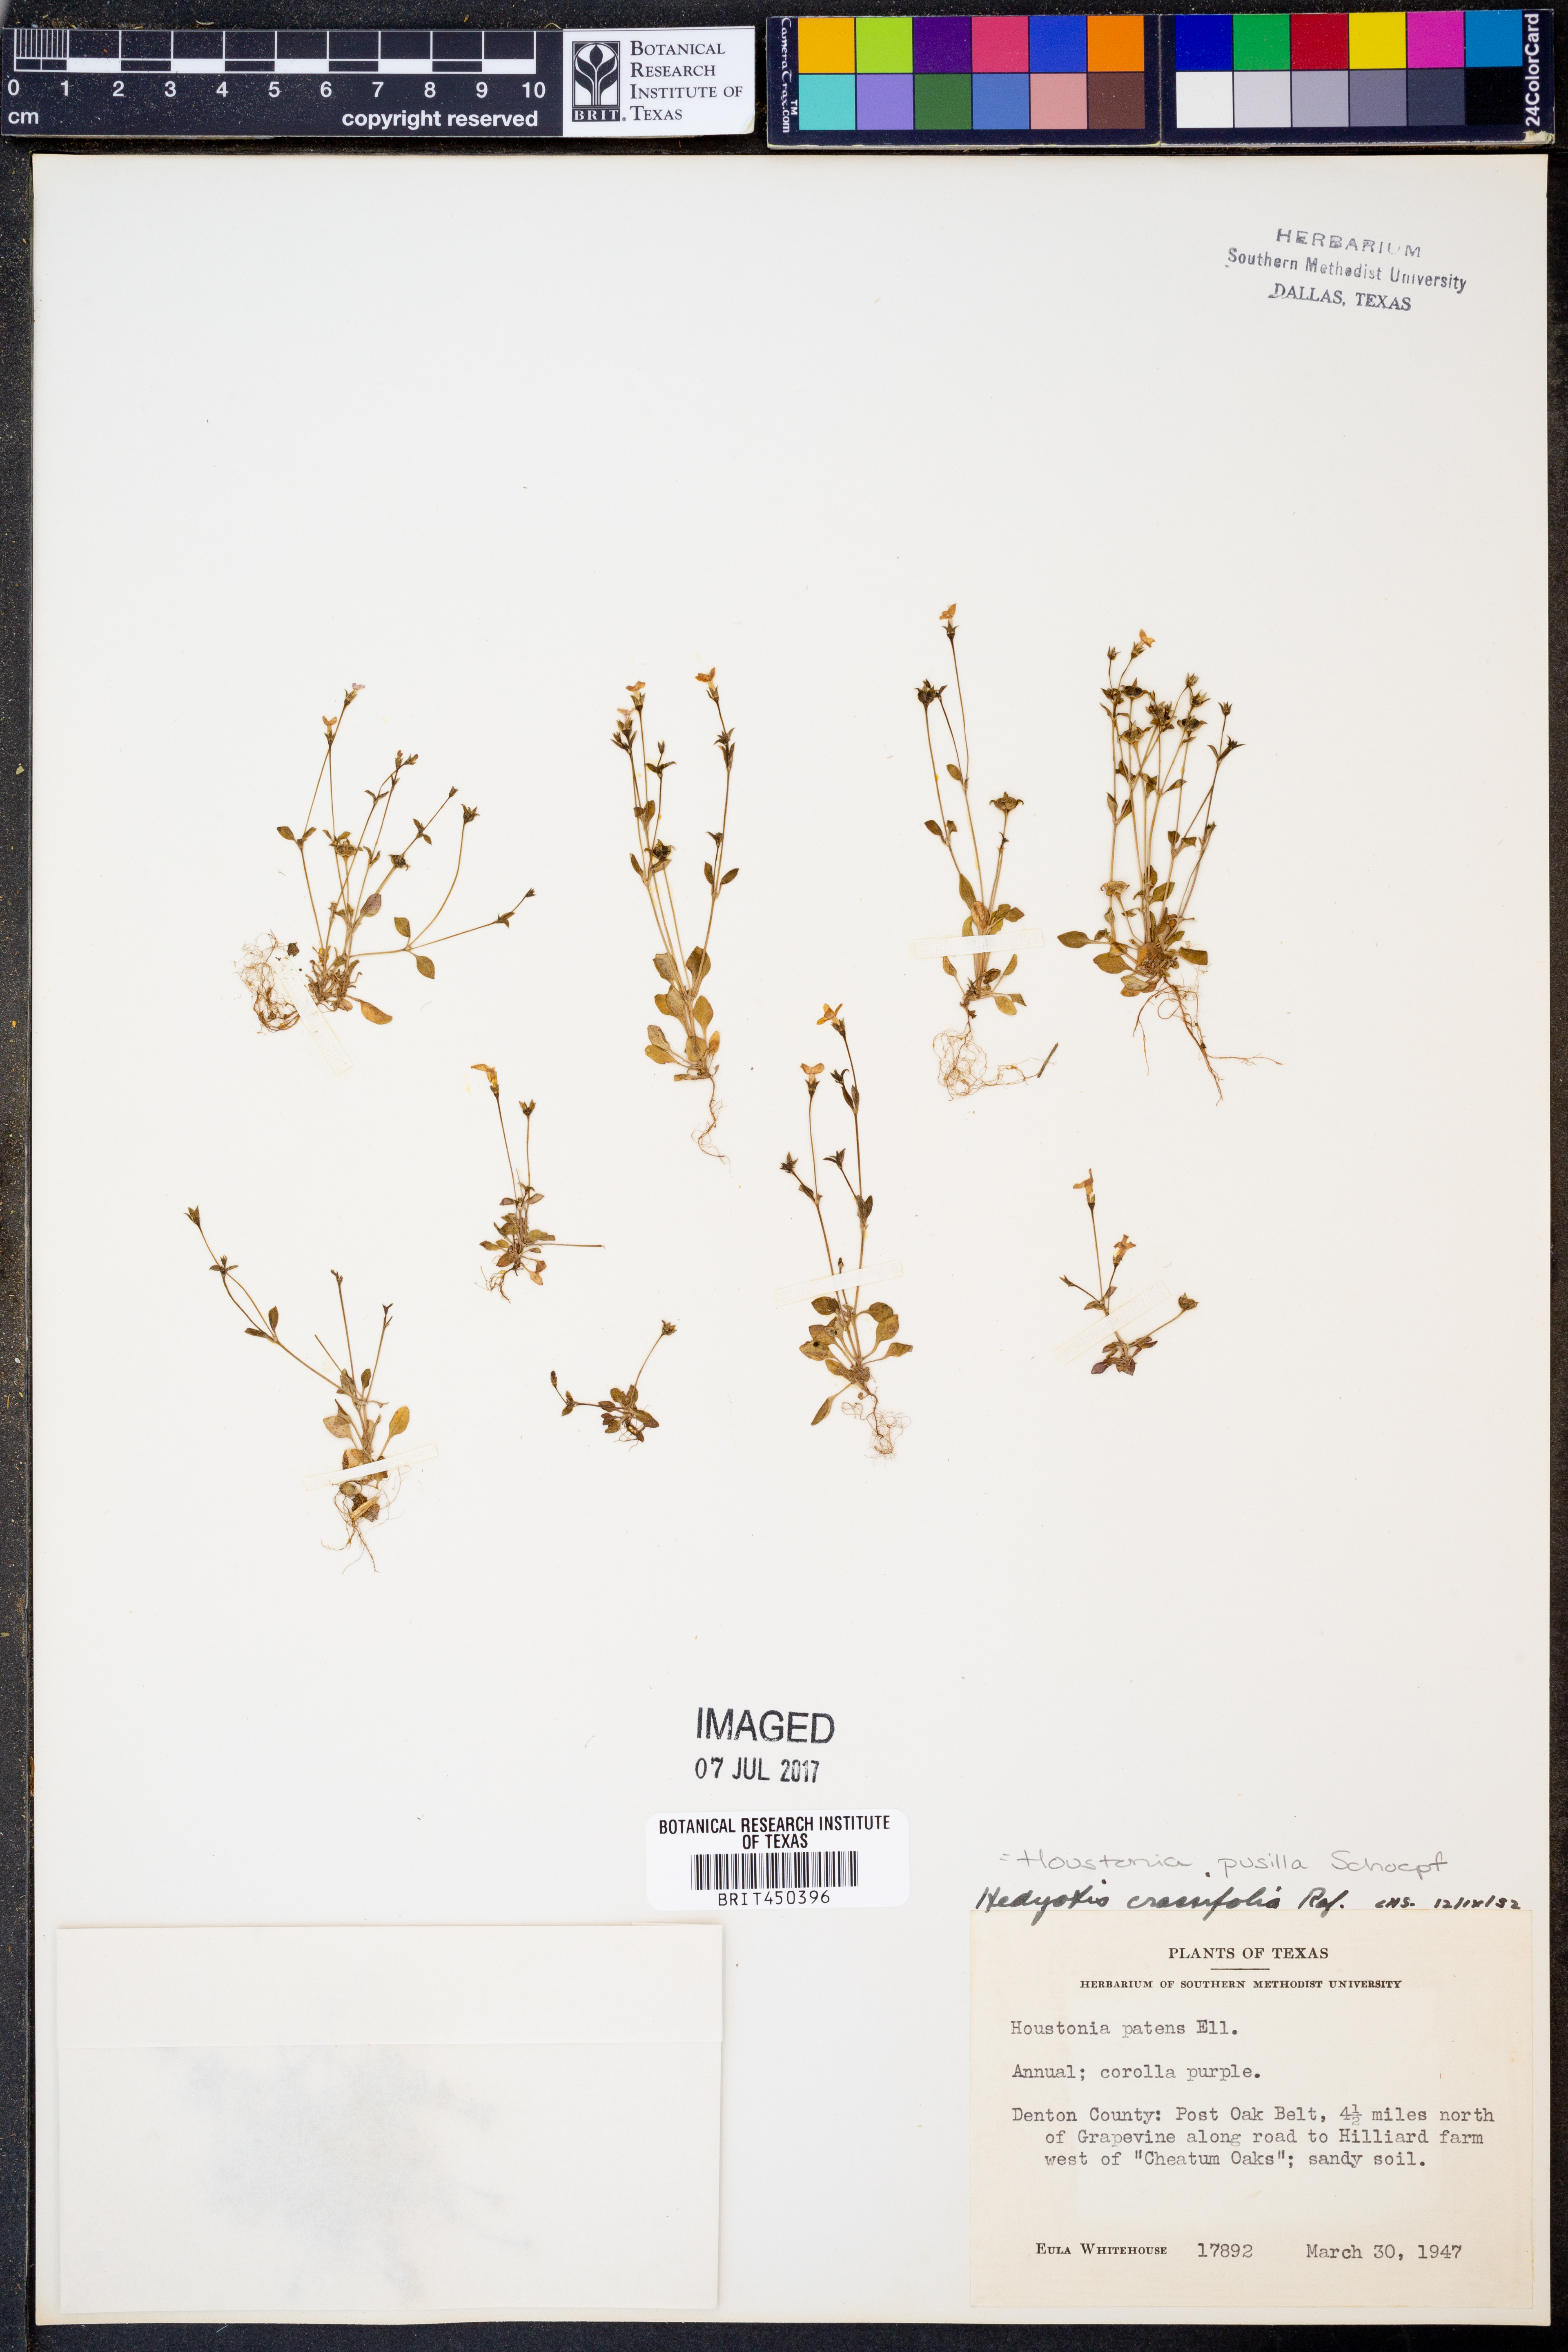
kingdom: Plantae
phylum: Tracheophyta
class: Magnoliopsida
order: Gentianales
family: Rubiaceae
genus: Houstonia
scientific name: Houstonia pusilla
